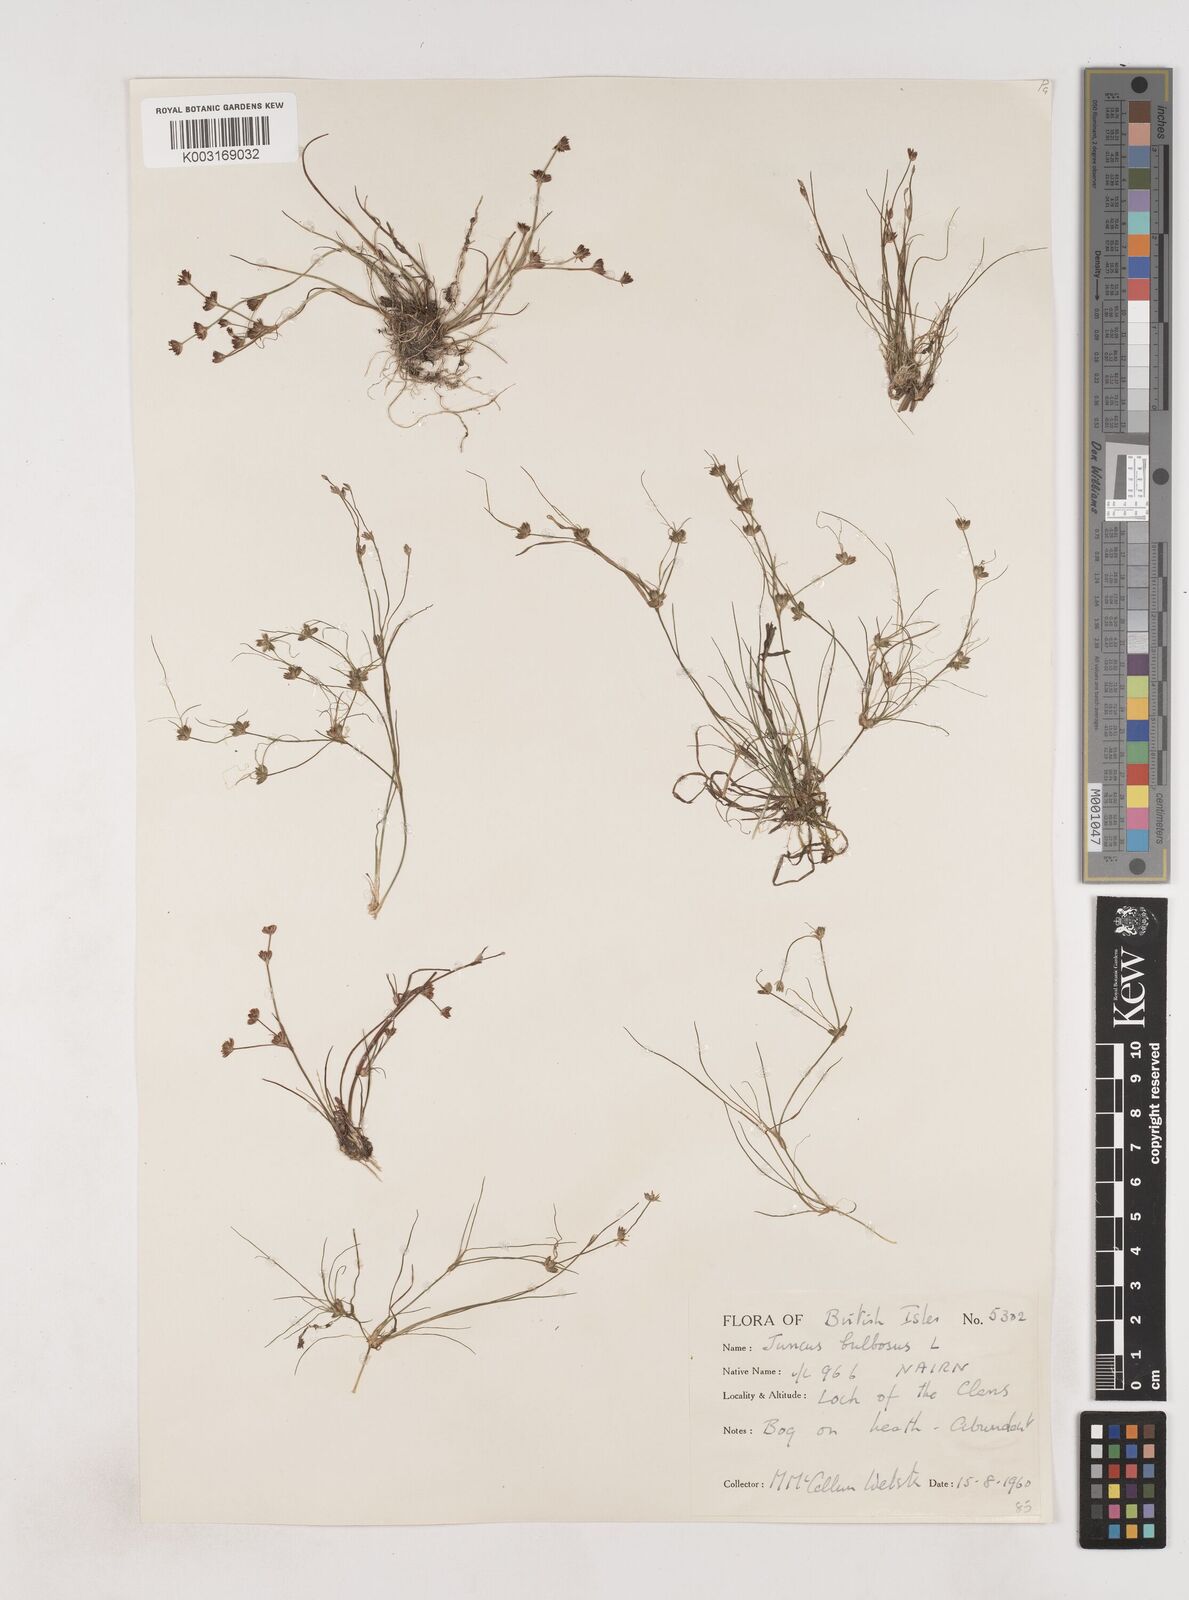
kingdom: Plantae
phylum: Tracheophyta
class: Liliopsida
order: Poales
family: Juncaceae
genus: Juncus
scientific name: Juncus bulbosus
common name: Bulbous rush
